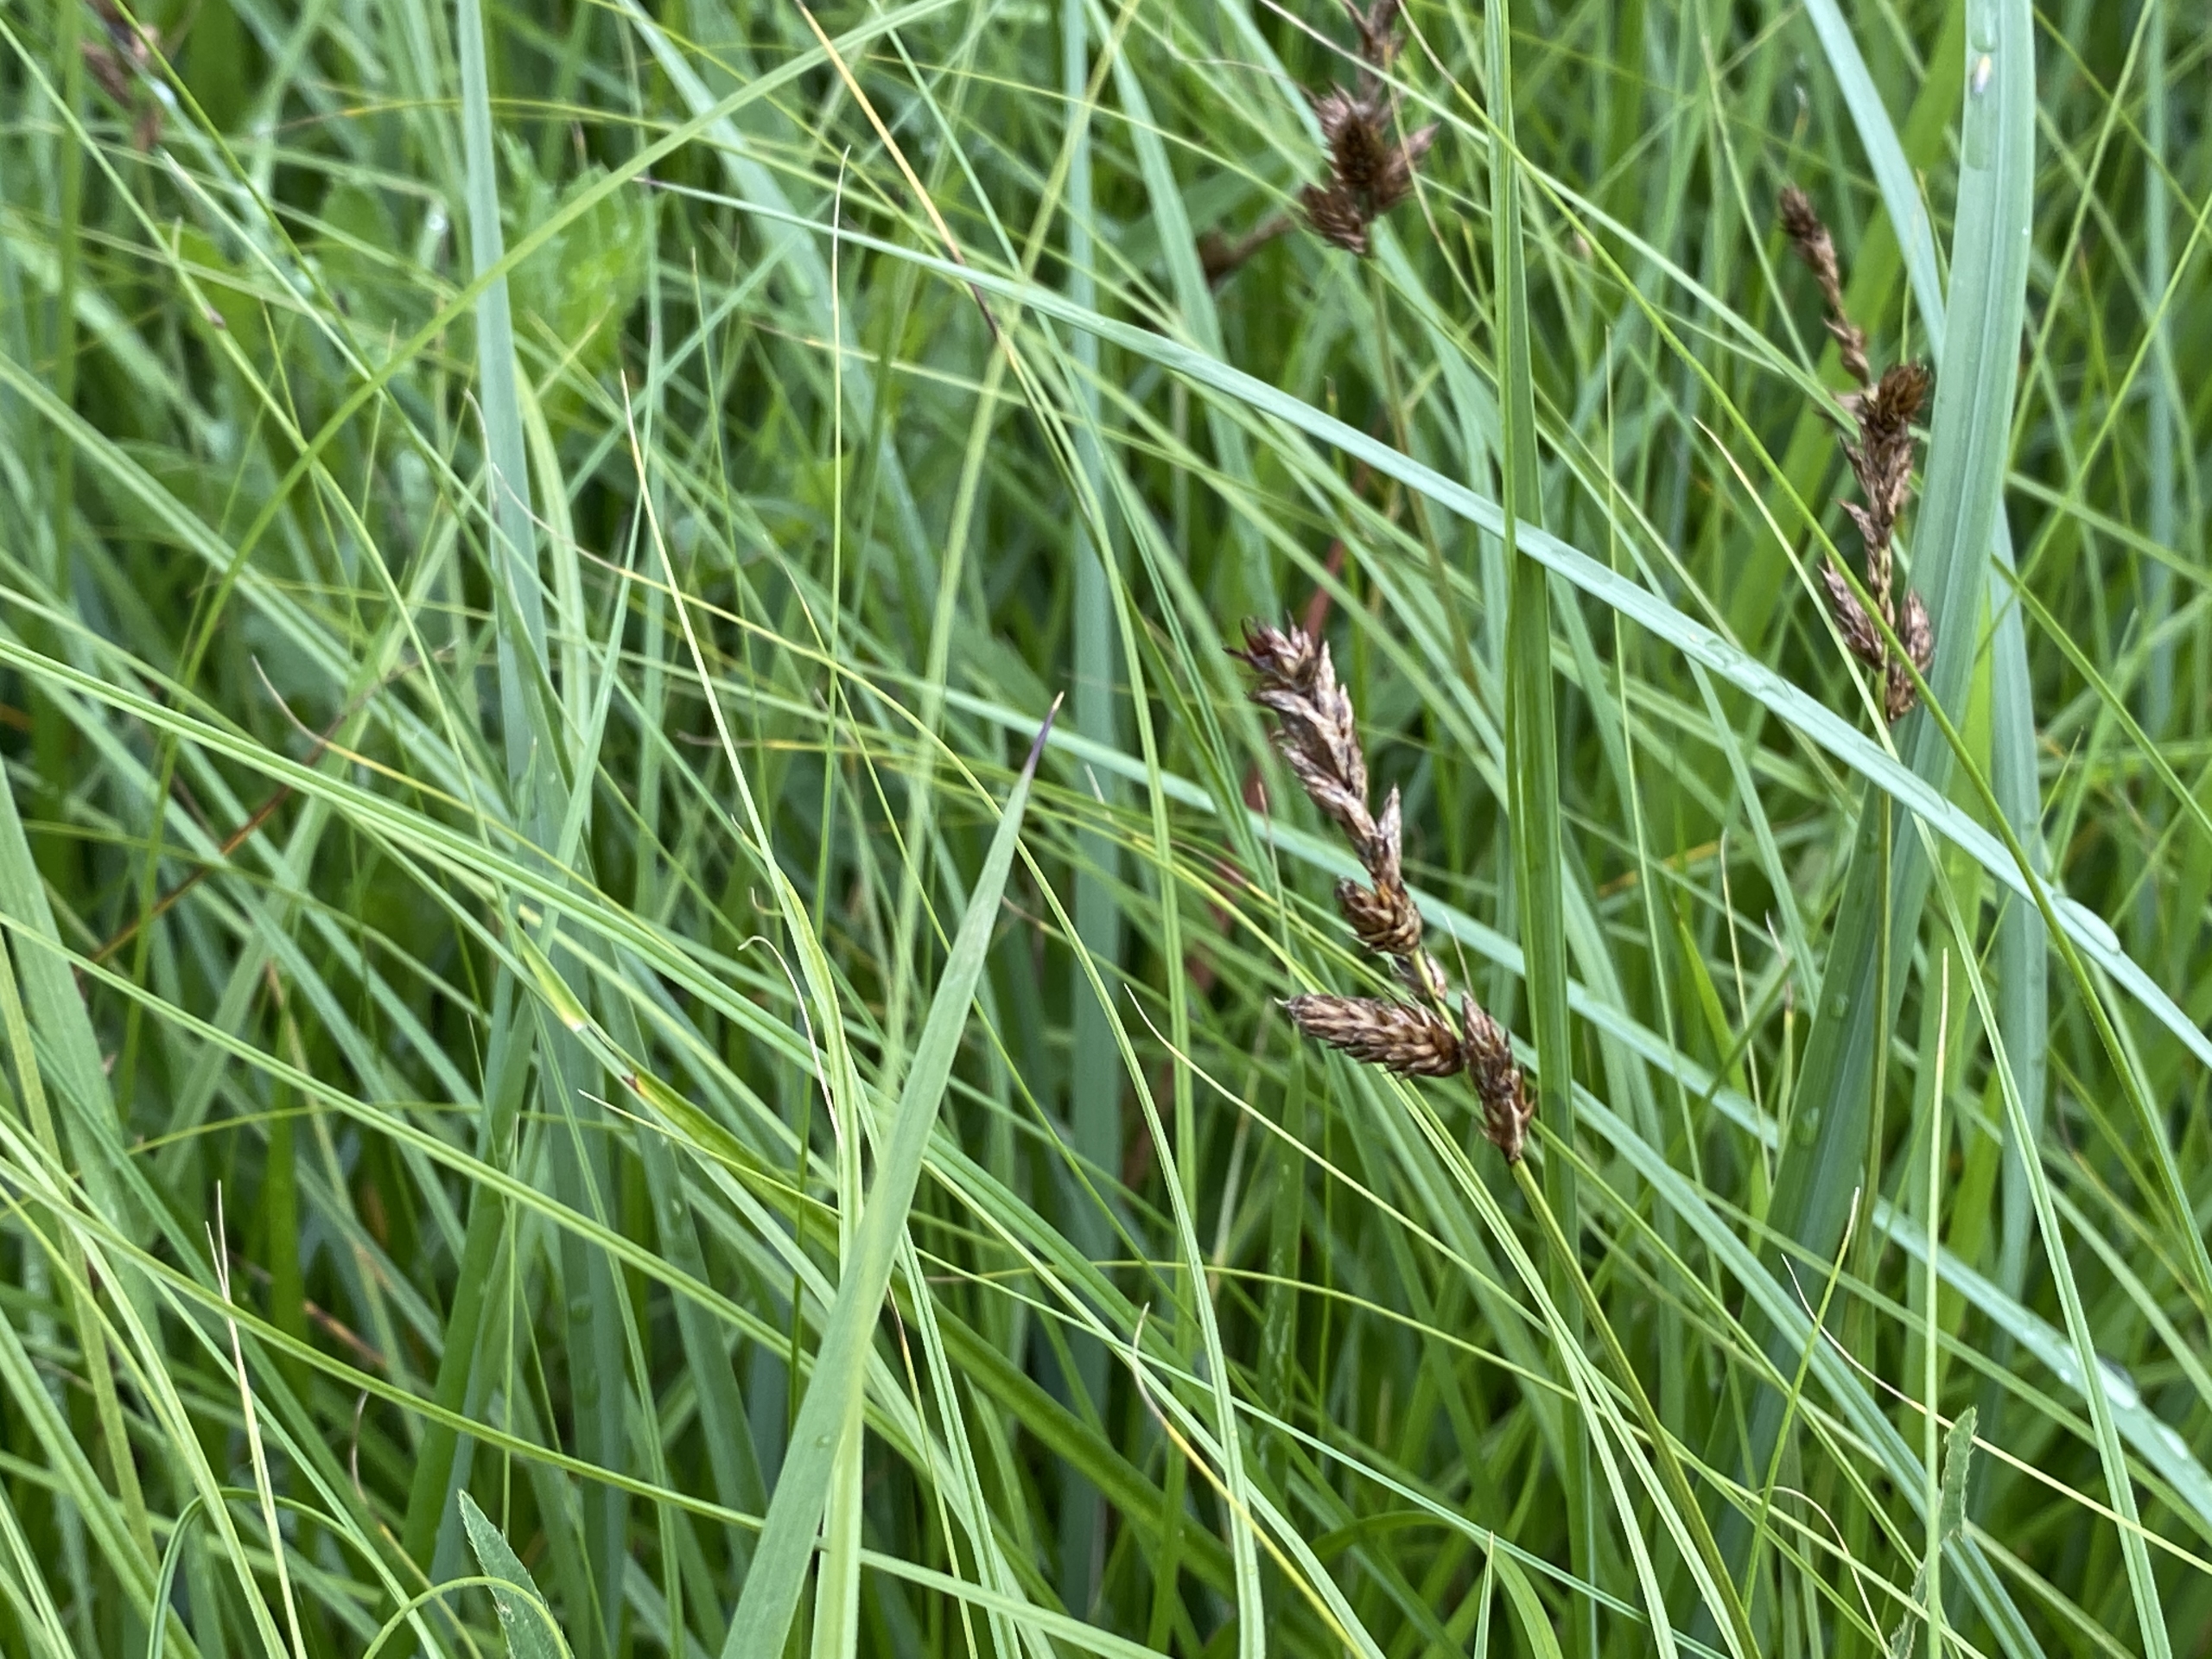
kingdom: Plantae
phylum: Tracheophyta
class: Liliopsida
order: Poales
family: Cyperaceae
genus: Carex
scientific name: Carex disticha
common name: Toradet star
